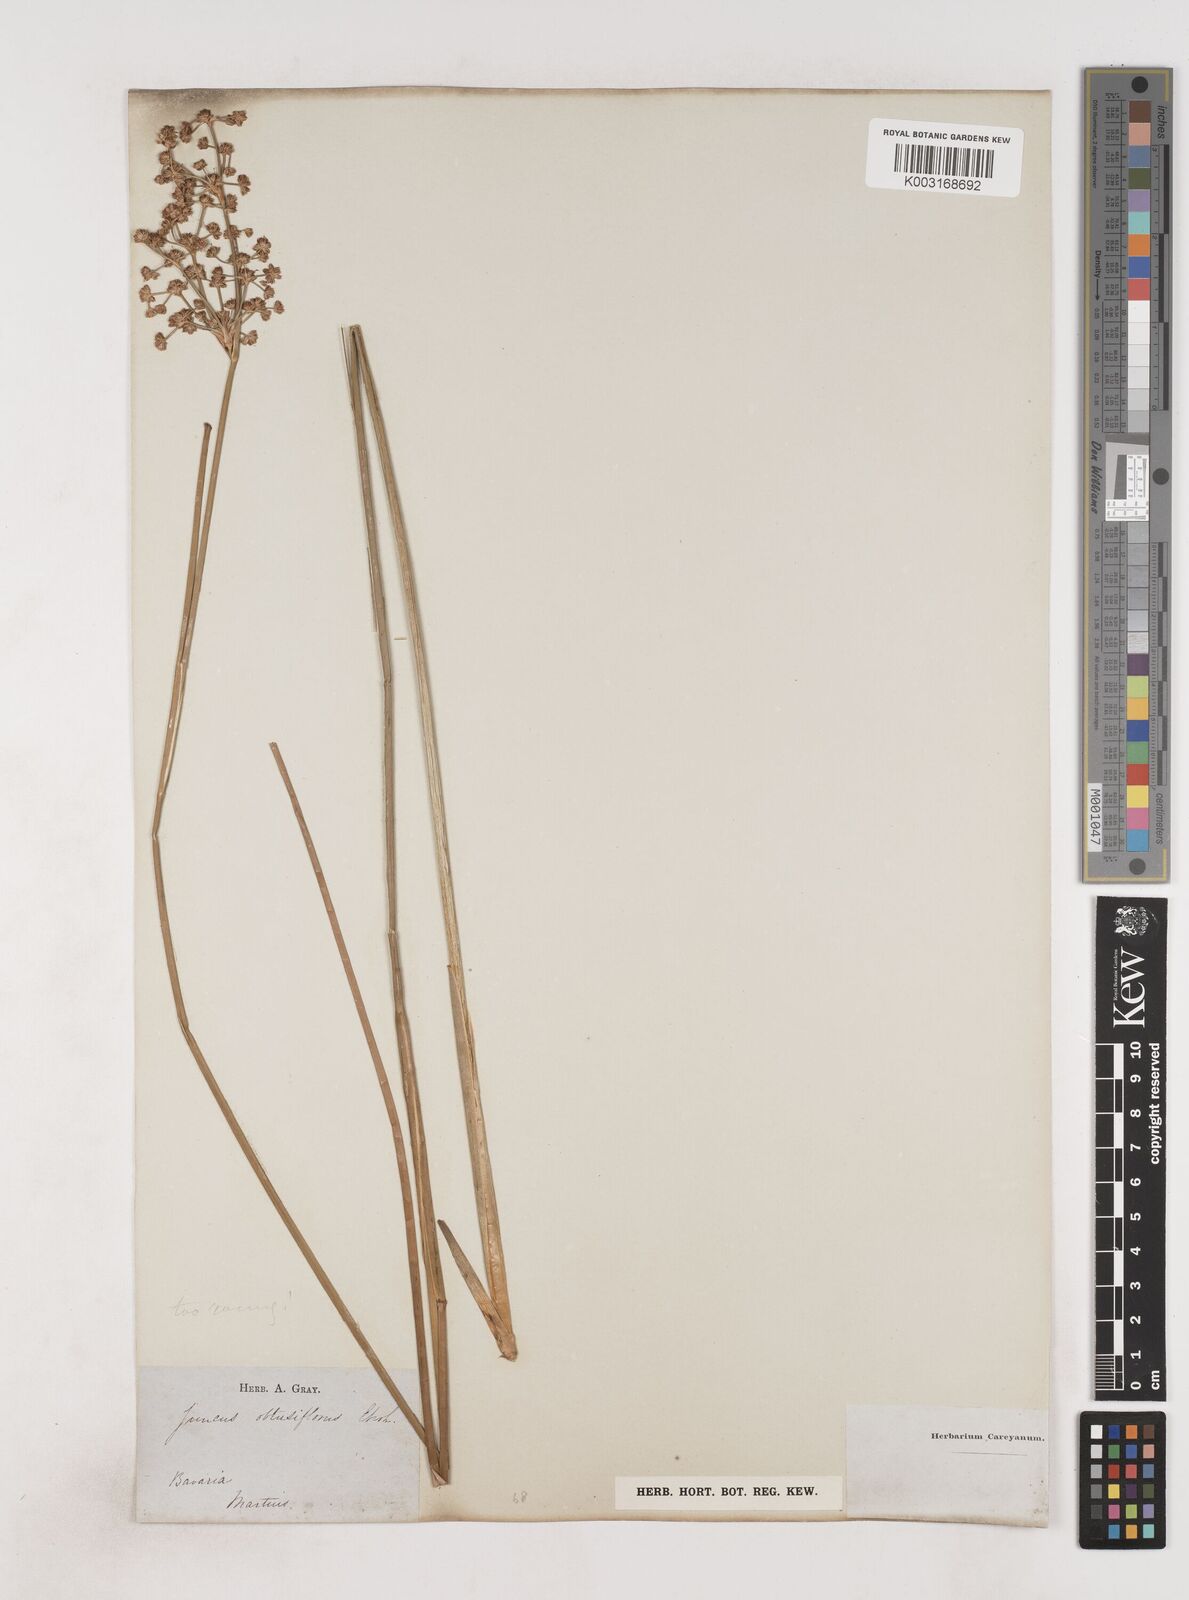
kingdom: Plantae
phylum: Tracheophyta
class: Liliopsida
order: Poales
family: Juncaceae
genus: Juncus
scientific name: Juncus subnodulosus
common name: Blunt-flowered rush
